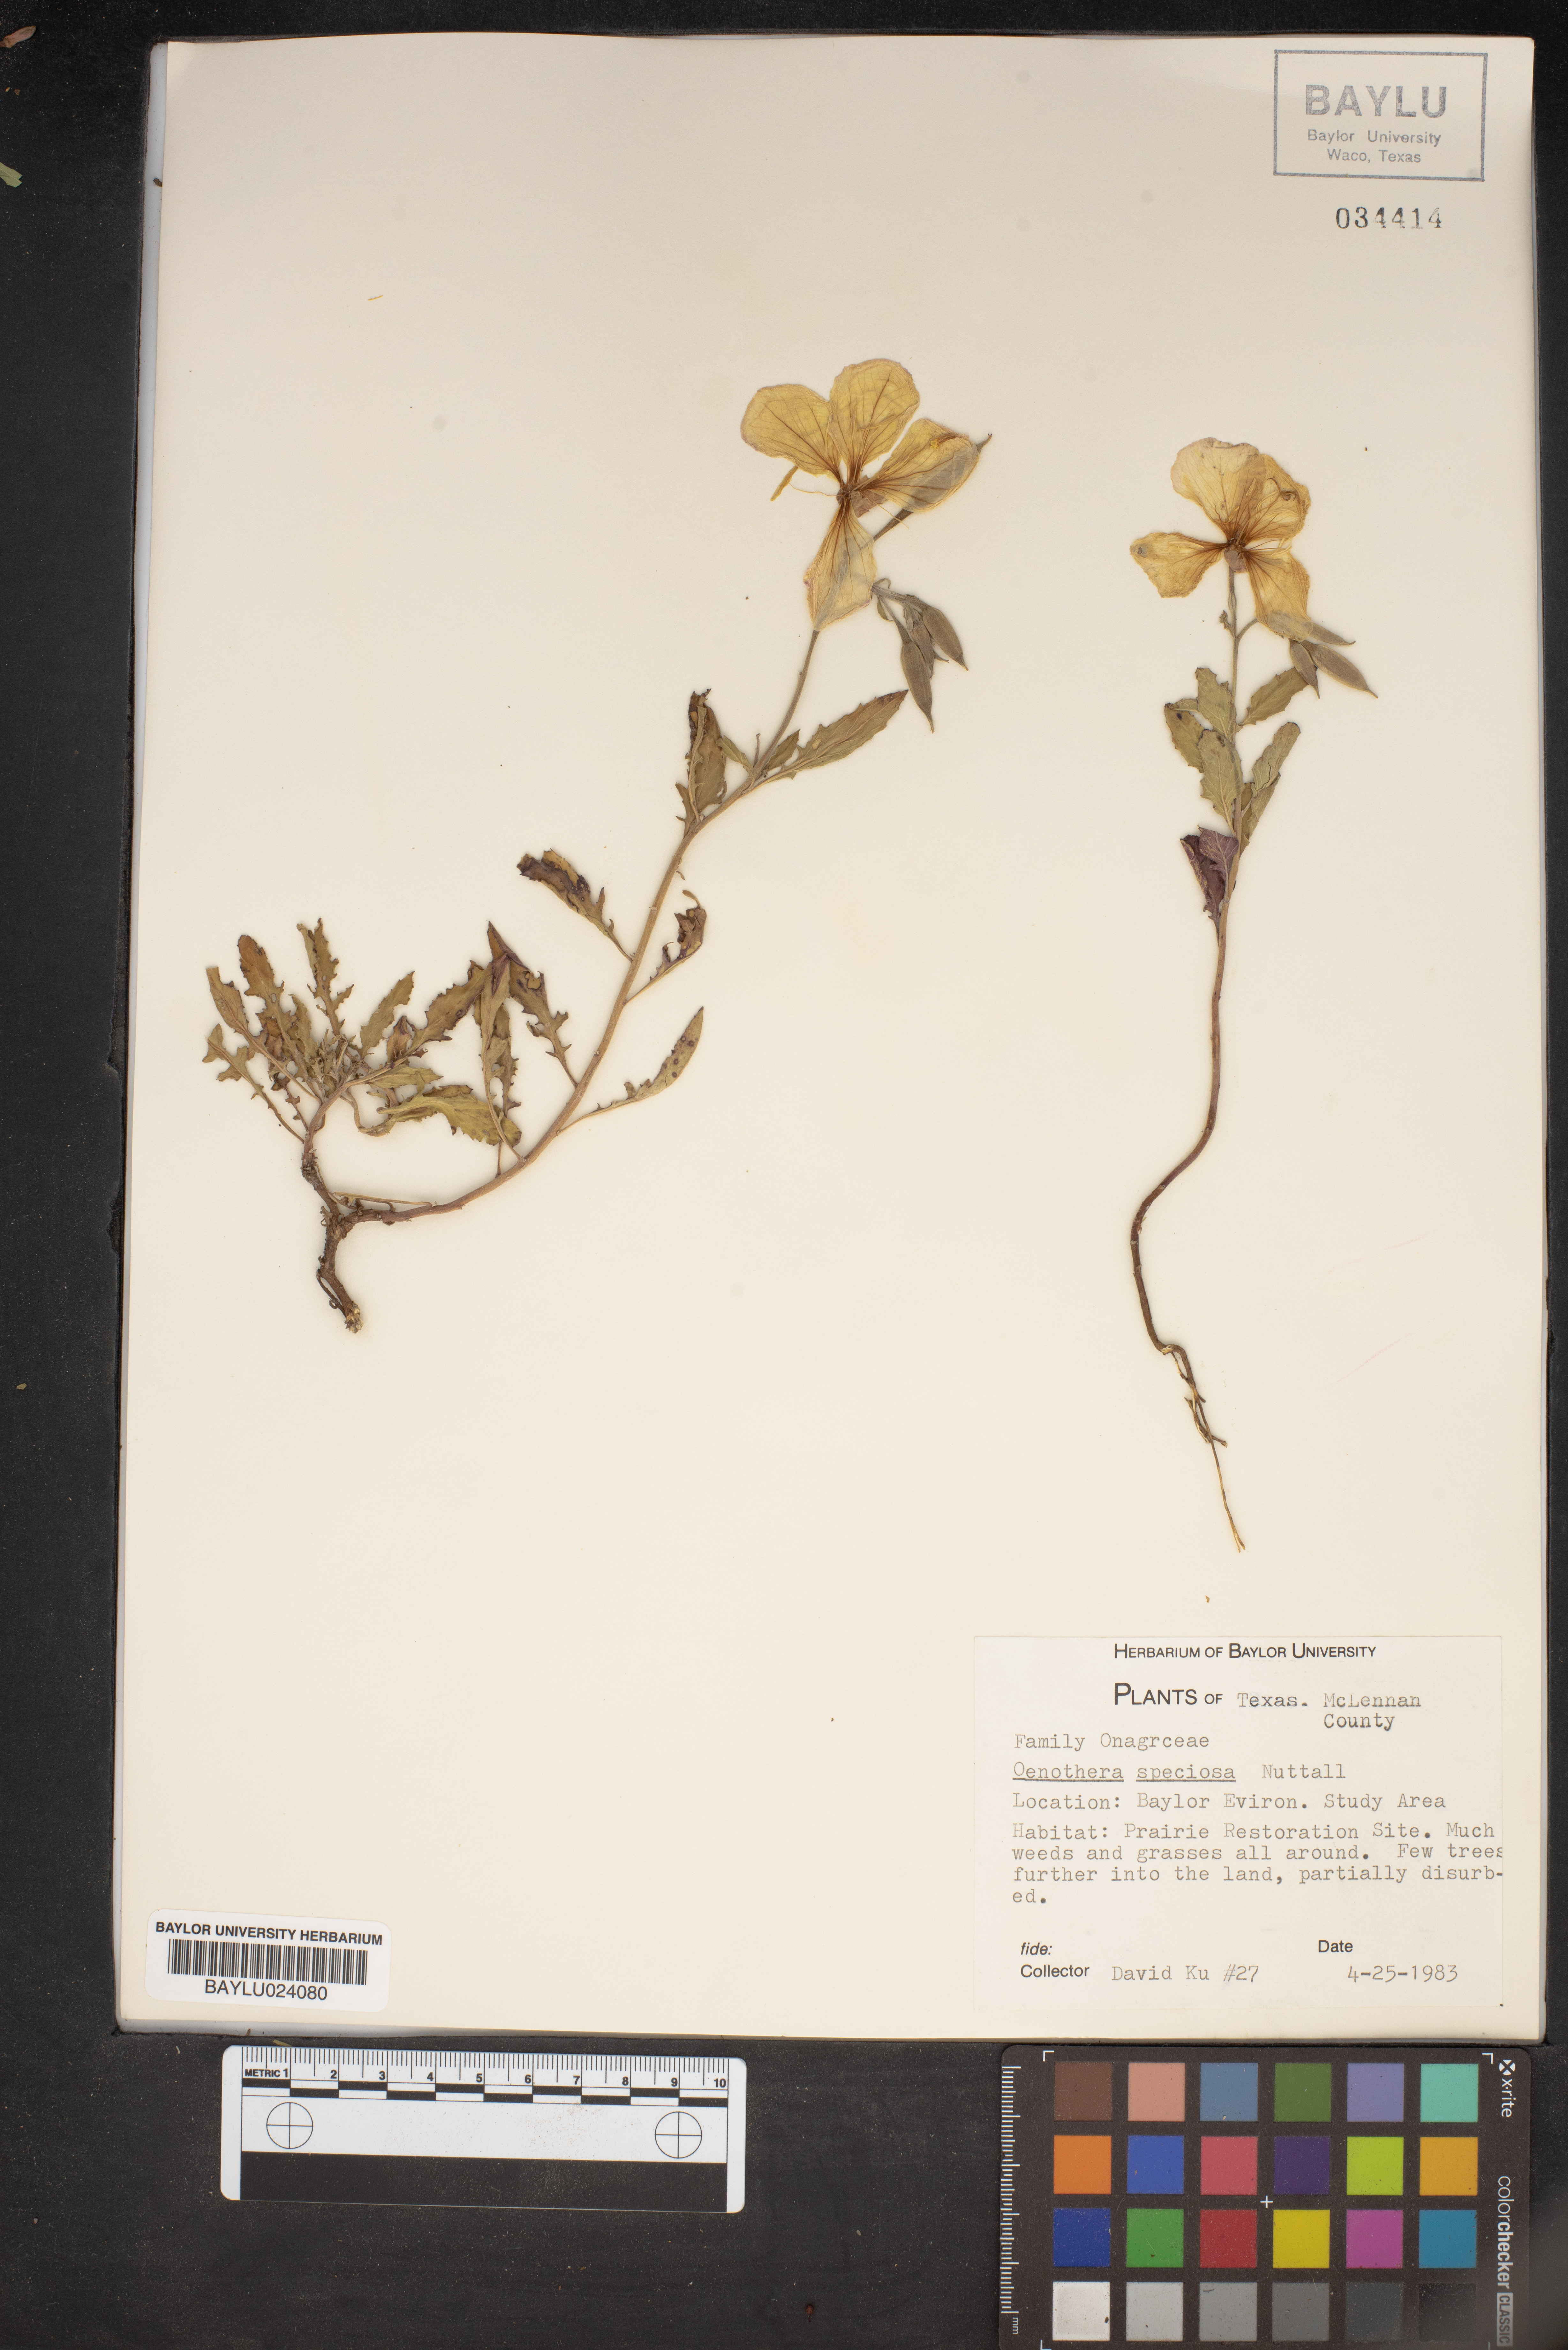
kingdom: Plantae
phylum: Tracheophyta
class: Magnoliopsida
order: Myrtales
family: Onagraceae
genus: Oenothera
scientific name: Oenothera speciosa
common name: White evening-primrose
